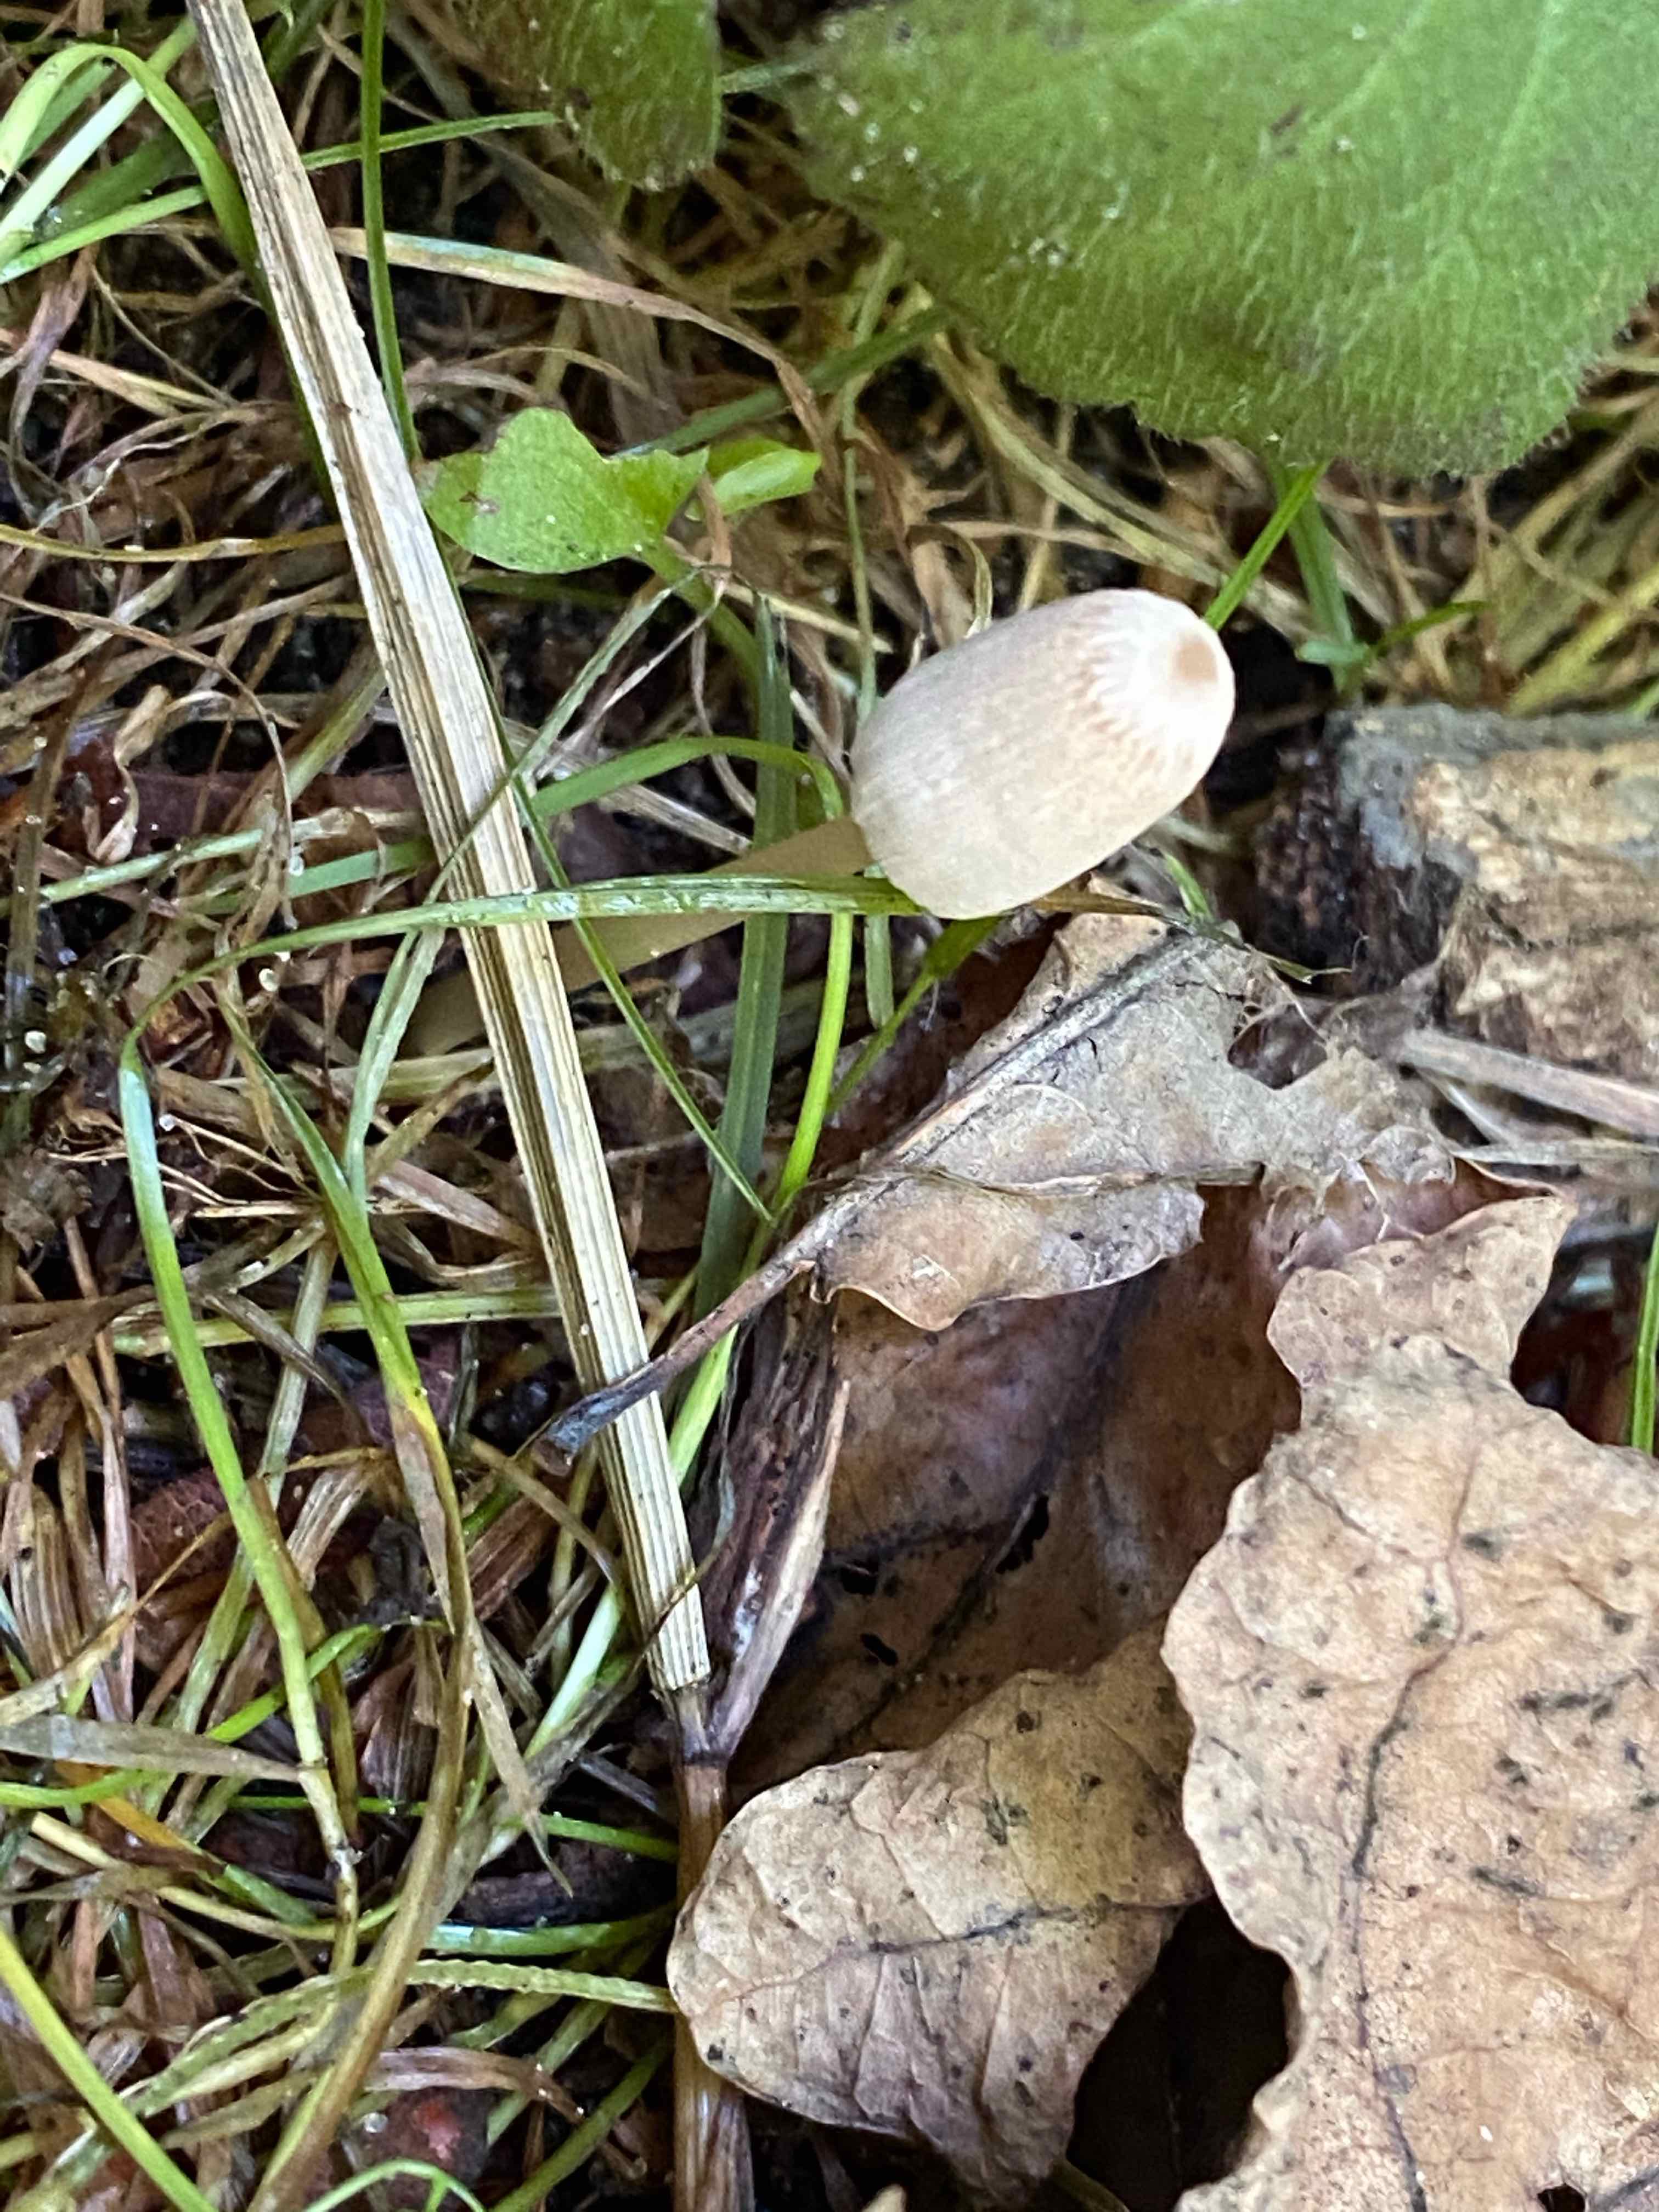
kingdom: Fungi
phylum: Basidiomycota
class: Agaricomycetes
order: Agaricales
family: Psathyrellaceae
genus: Parasola
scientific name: Parasola lactea
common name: glat hjulhat
